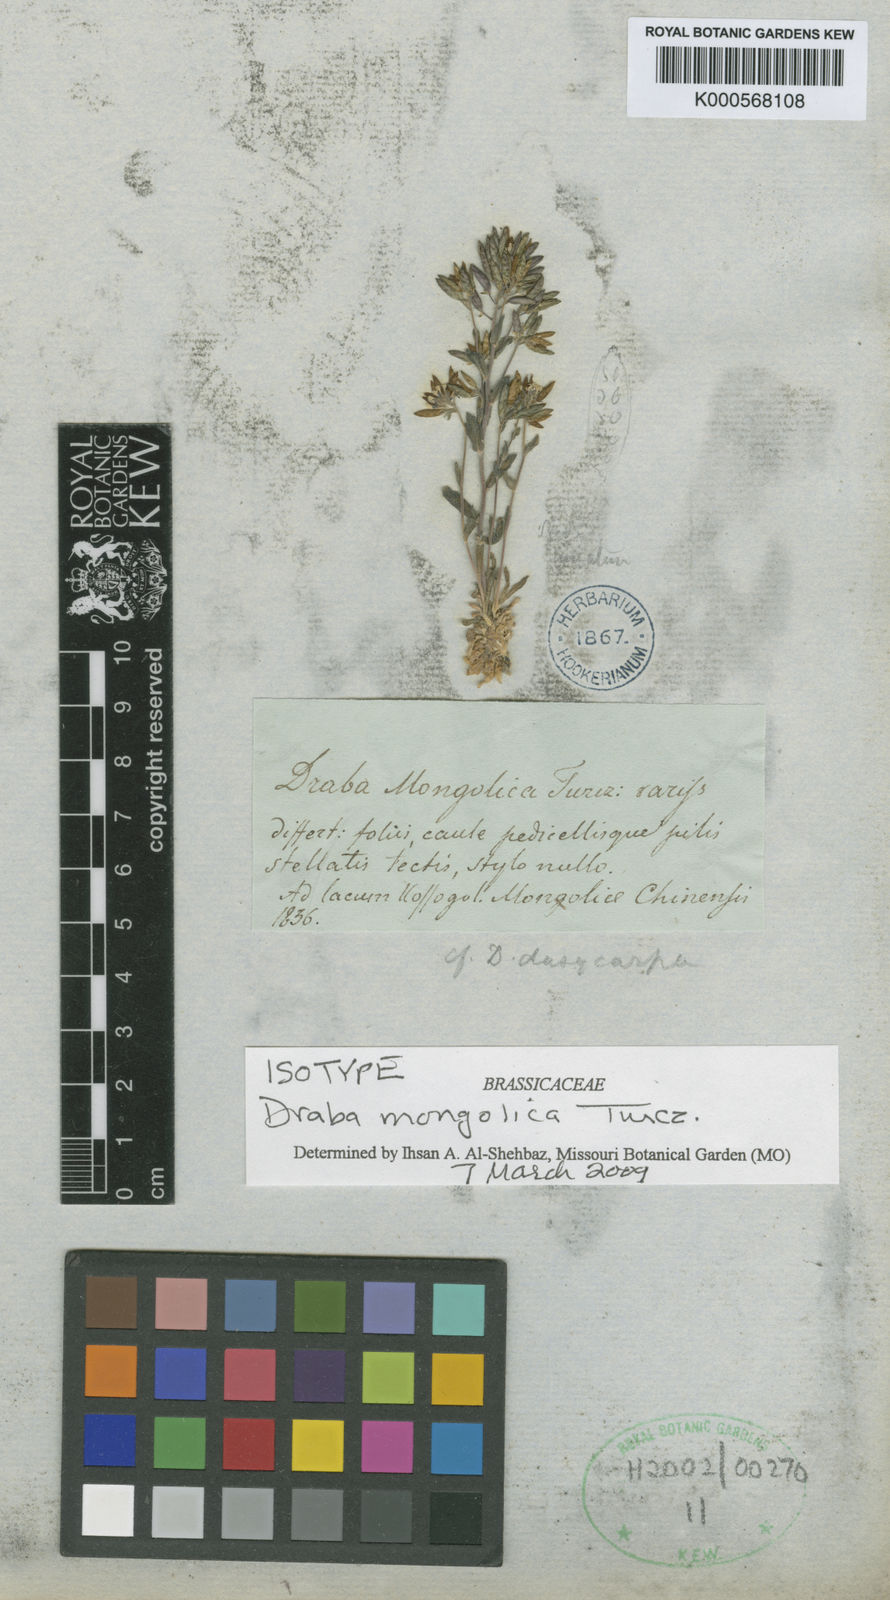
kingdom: Plantae
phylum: Tracheophyta
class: Magnoliopsida
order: Brassicales
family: Brassicaceae
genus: Draba
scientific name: Draba mongolica
